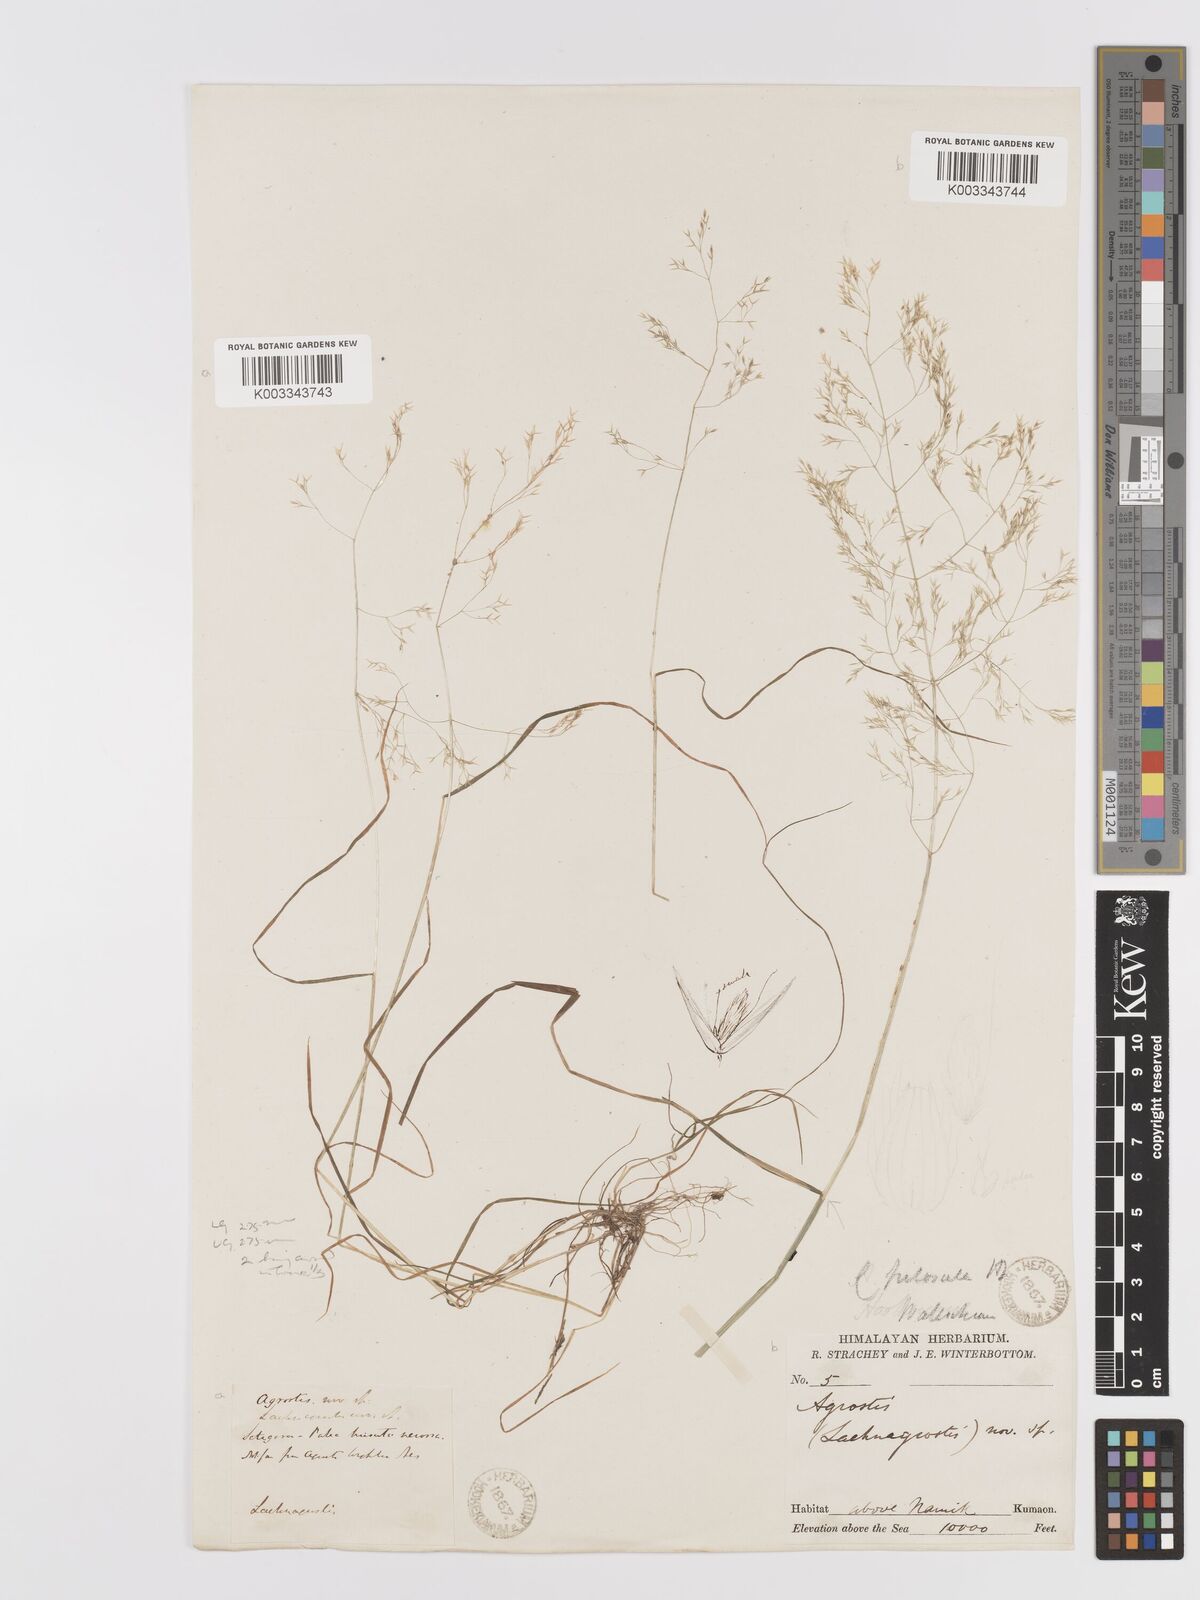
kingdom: Plantae
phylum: Tracheophyta
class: Liliopsida
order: Poales
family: Poaceae
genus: Agrostis
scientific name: Agrostis pilosula
